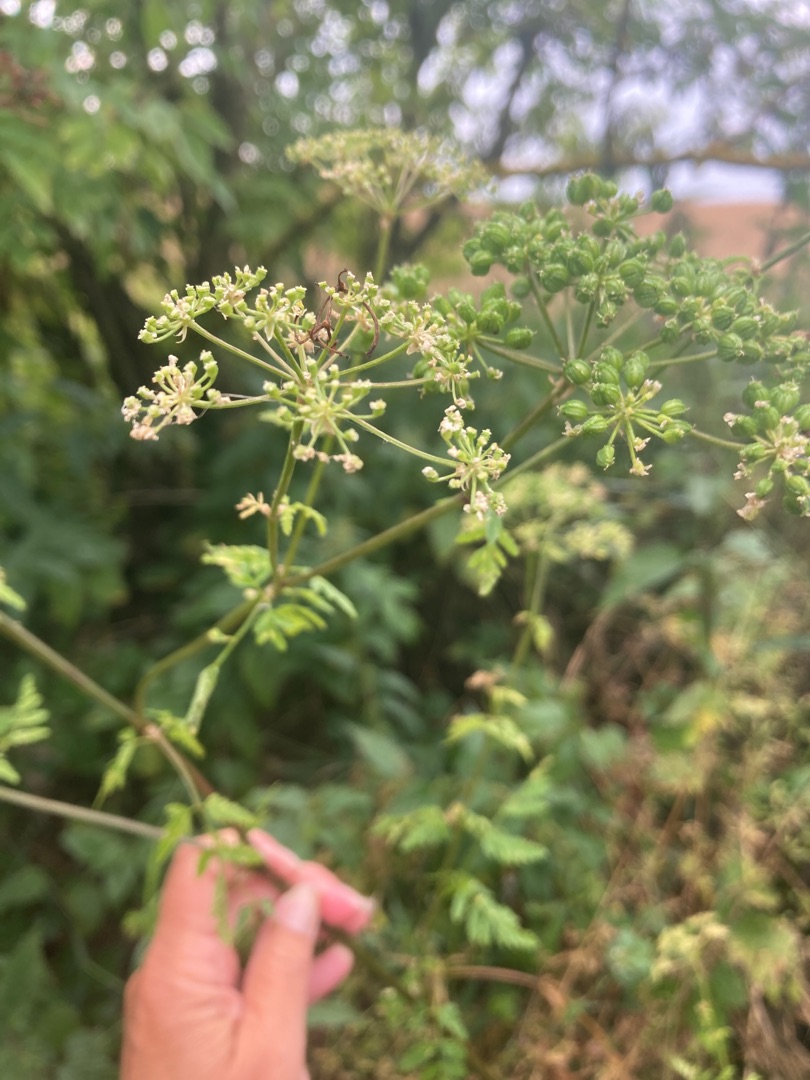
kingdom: Plantae
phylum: Tracheophyta
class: Magnoliopsida
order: Apiales
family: Apiaceae
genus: Conium
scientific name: Conium maculatum
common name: Skarntyde
